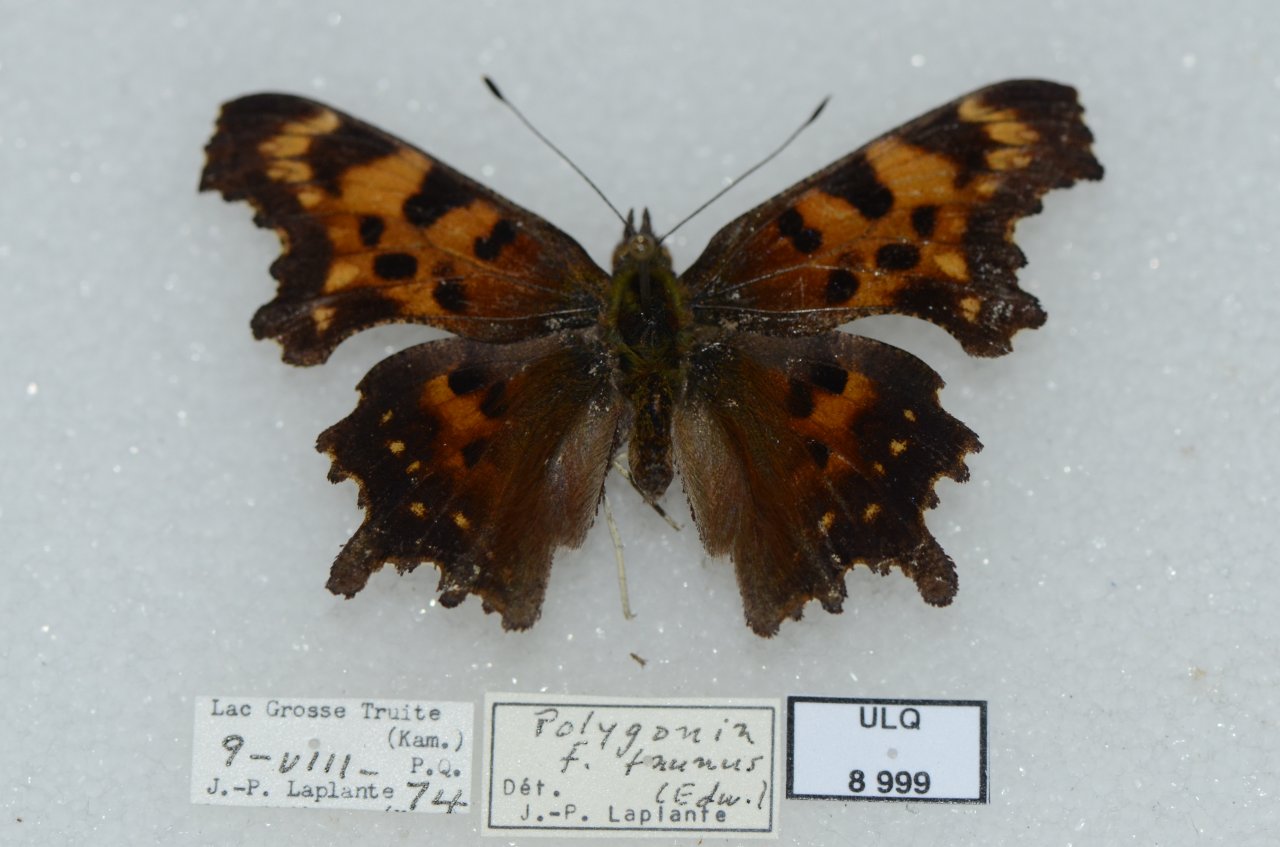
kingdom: Animalia
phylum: Arthropoda
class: Insecta
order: Lepidoptera
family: Nymphalidae
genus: Polygonia
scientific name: Polygonia faunus
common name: Green Comma
